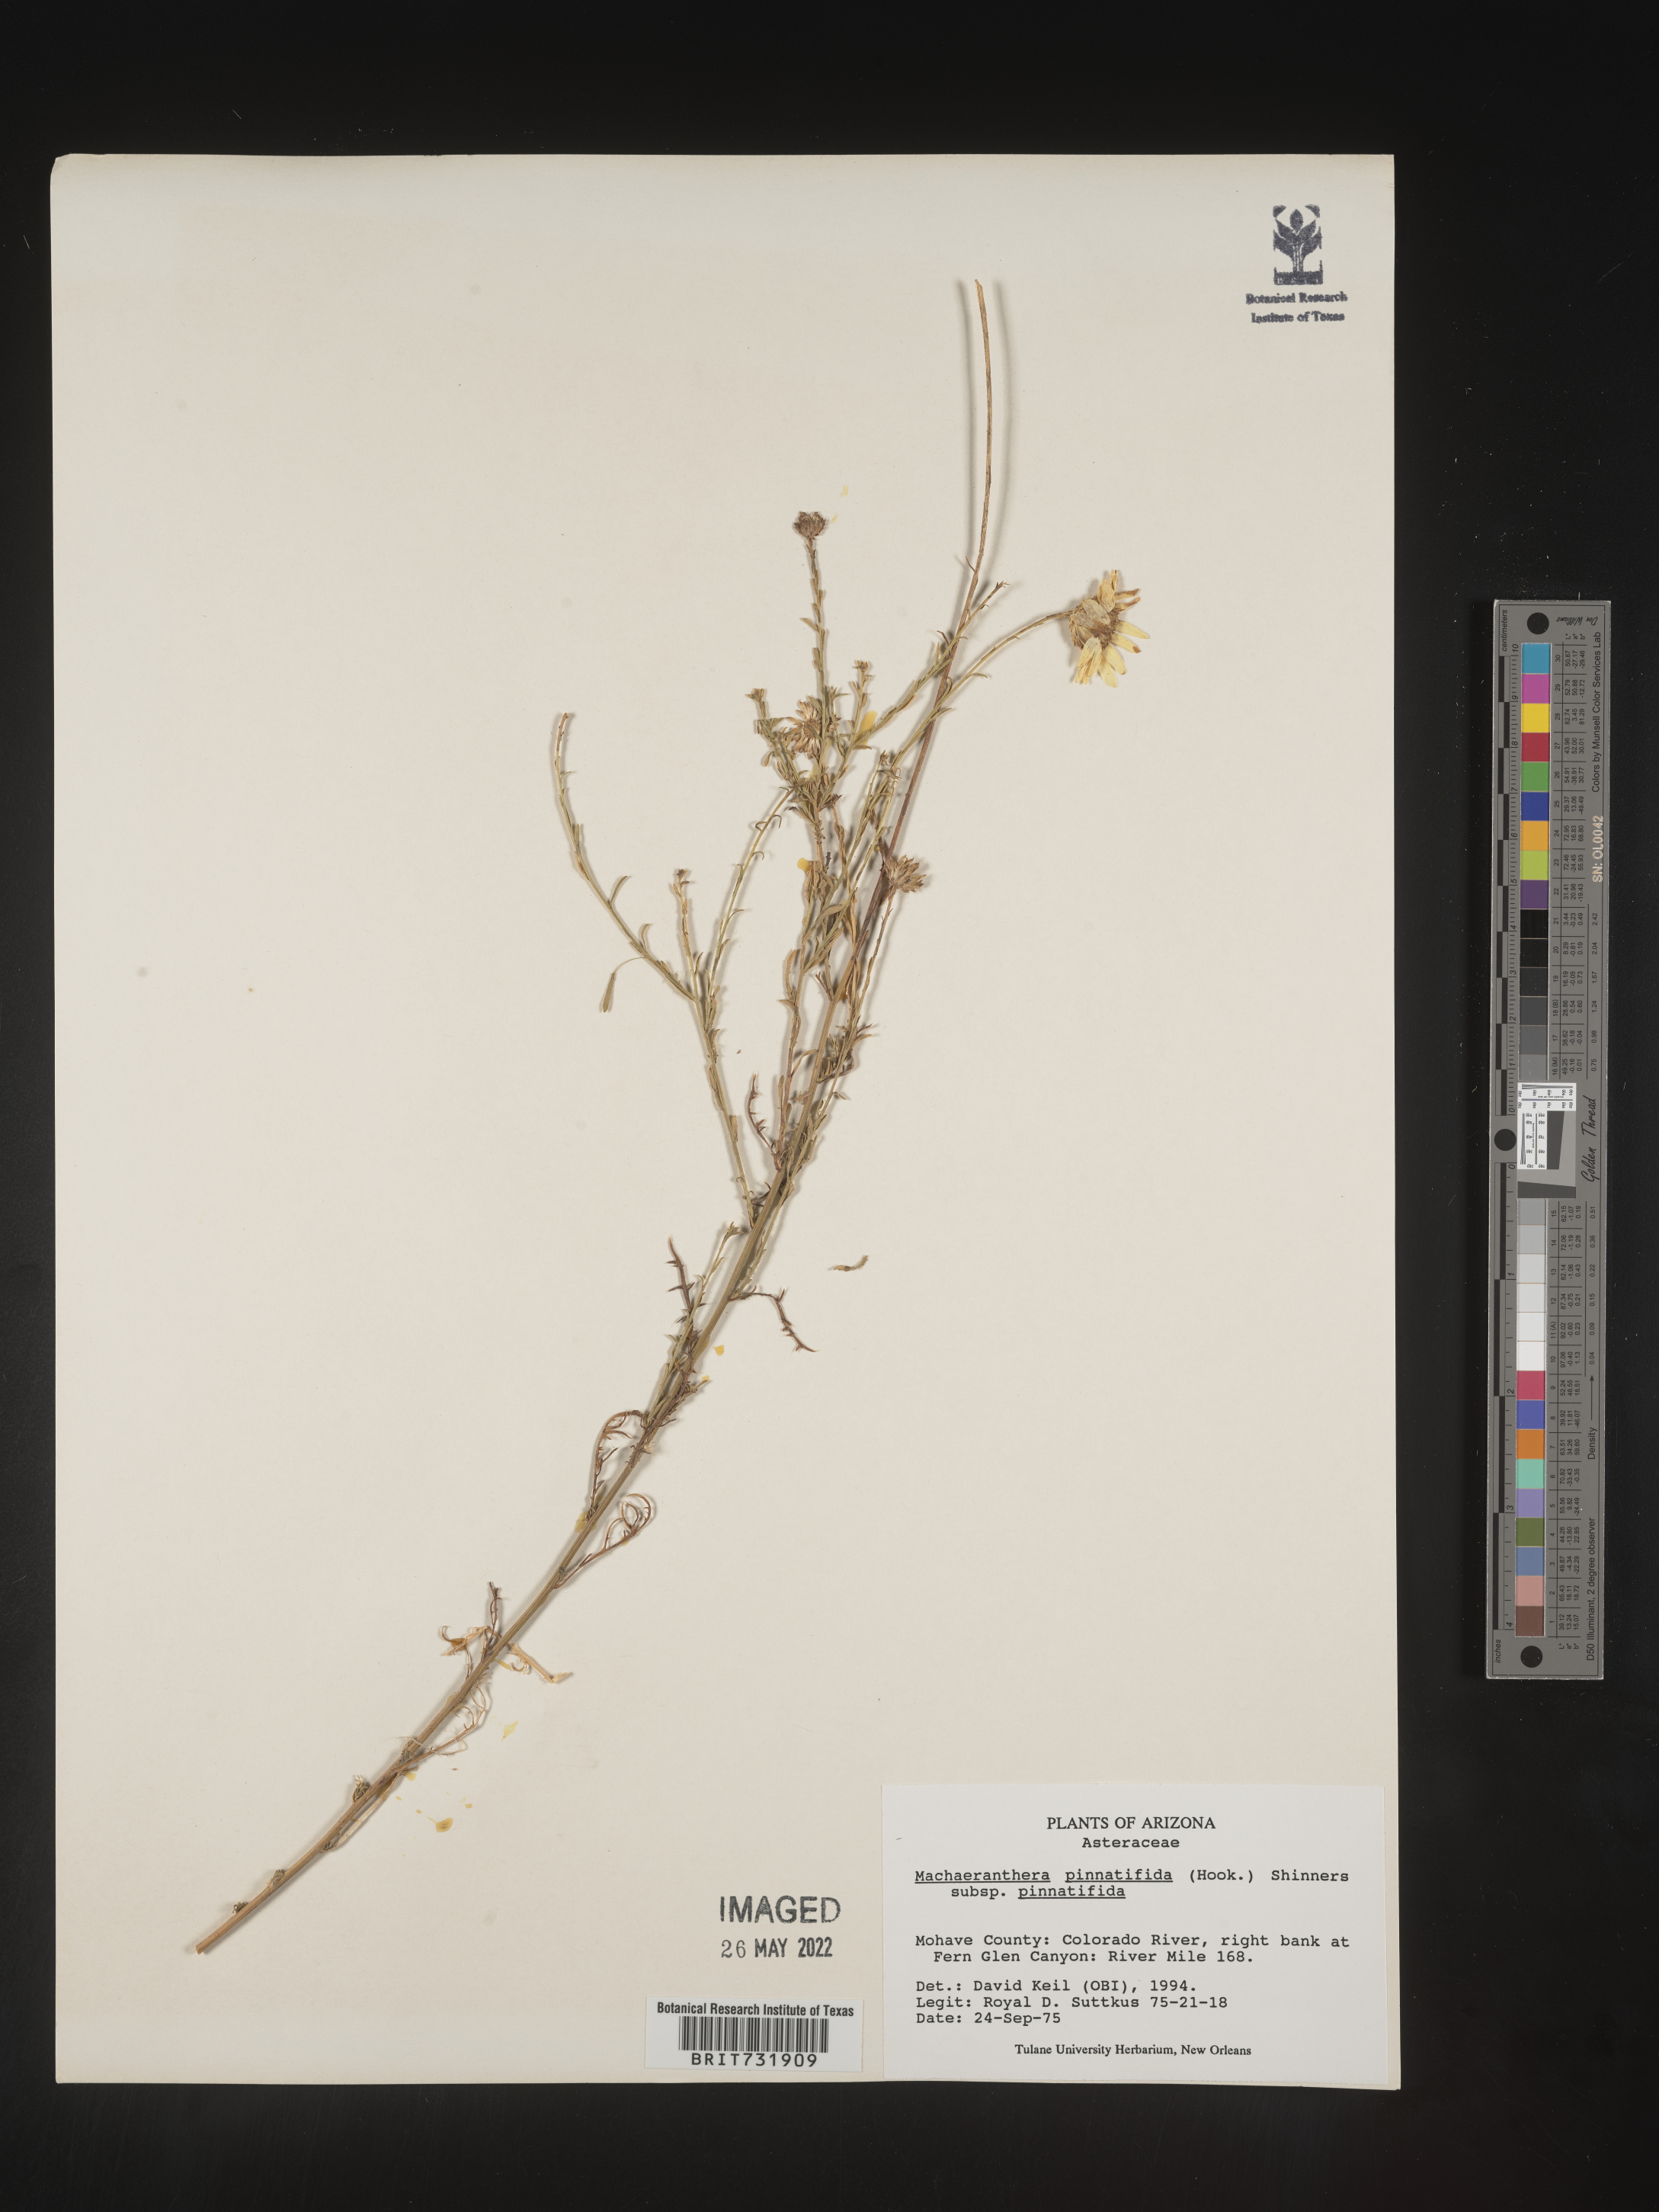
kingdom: Plantae
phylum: Tracheophyta
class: Magnoliopsida
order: Asterales
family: Asteraceae
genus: Xanthisma
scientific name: Xanthisma spinulosum
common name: Spiny goldenweed
